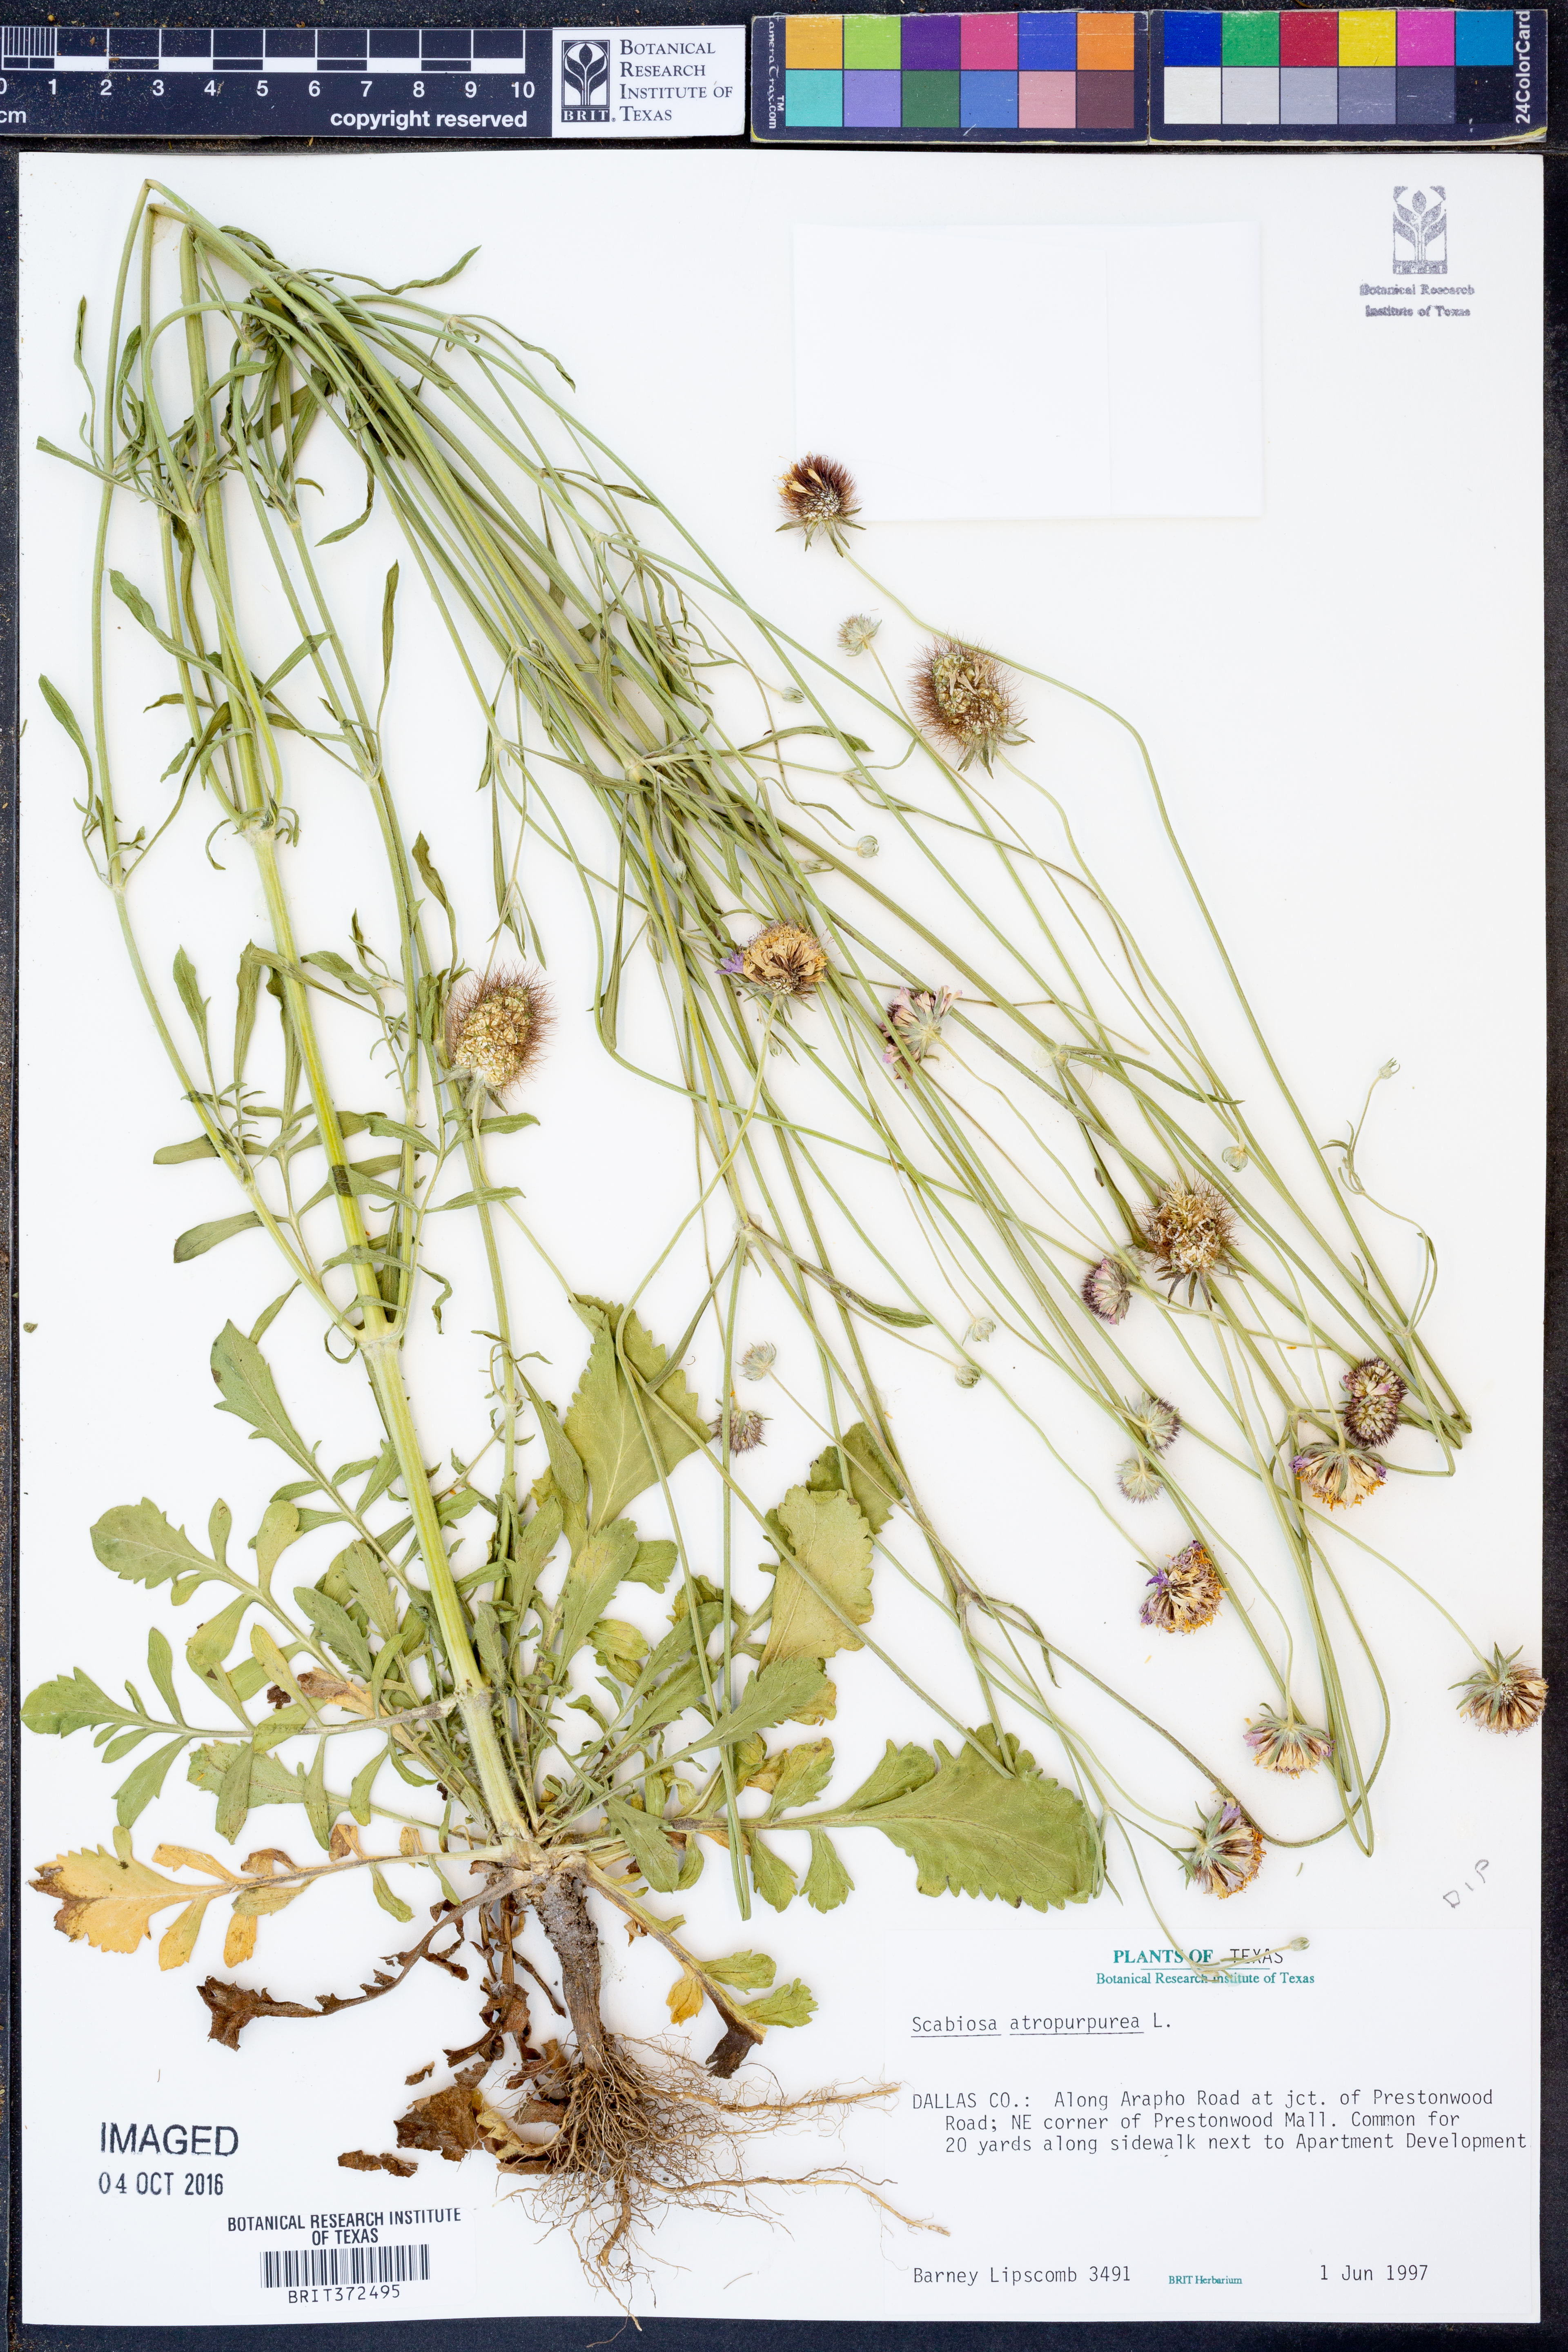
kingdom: Plantae
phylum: Tracheophyta
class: Magnoliopsida
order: Dipsacales
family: Caprifoliaceae
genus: Sixalix
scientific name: Sixalix atropurpurea
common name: Sweet scabious
